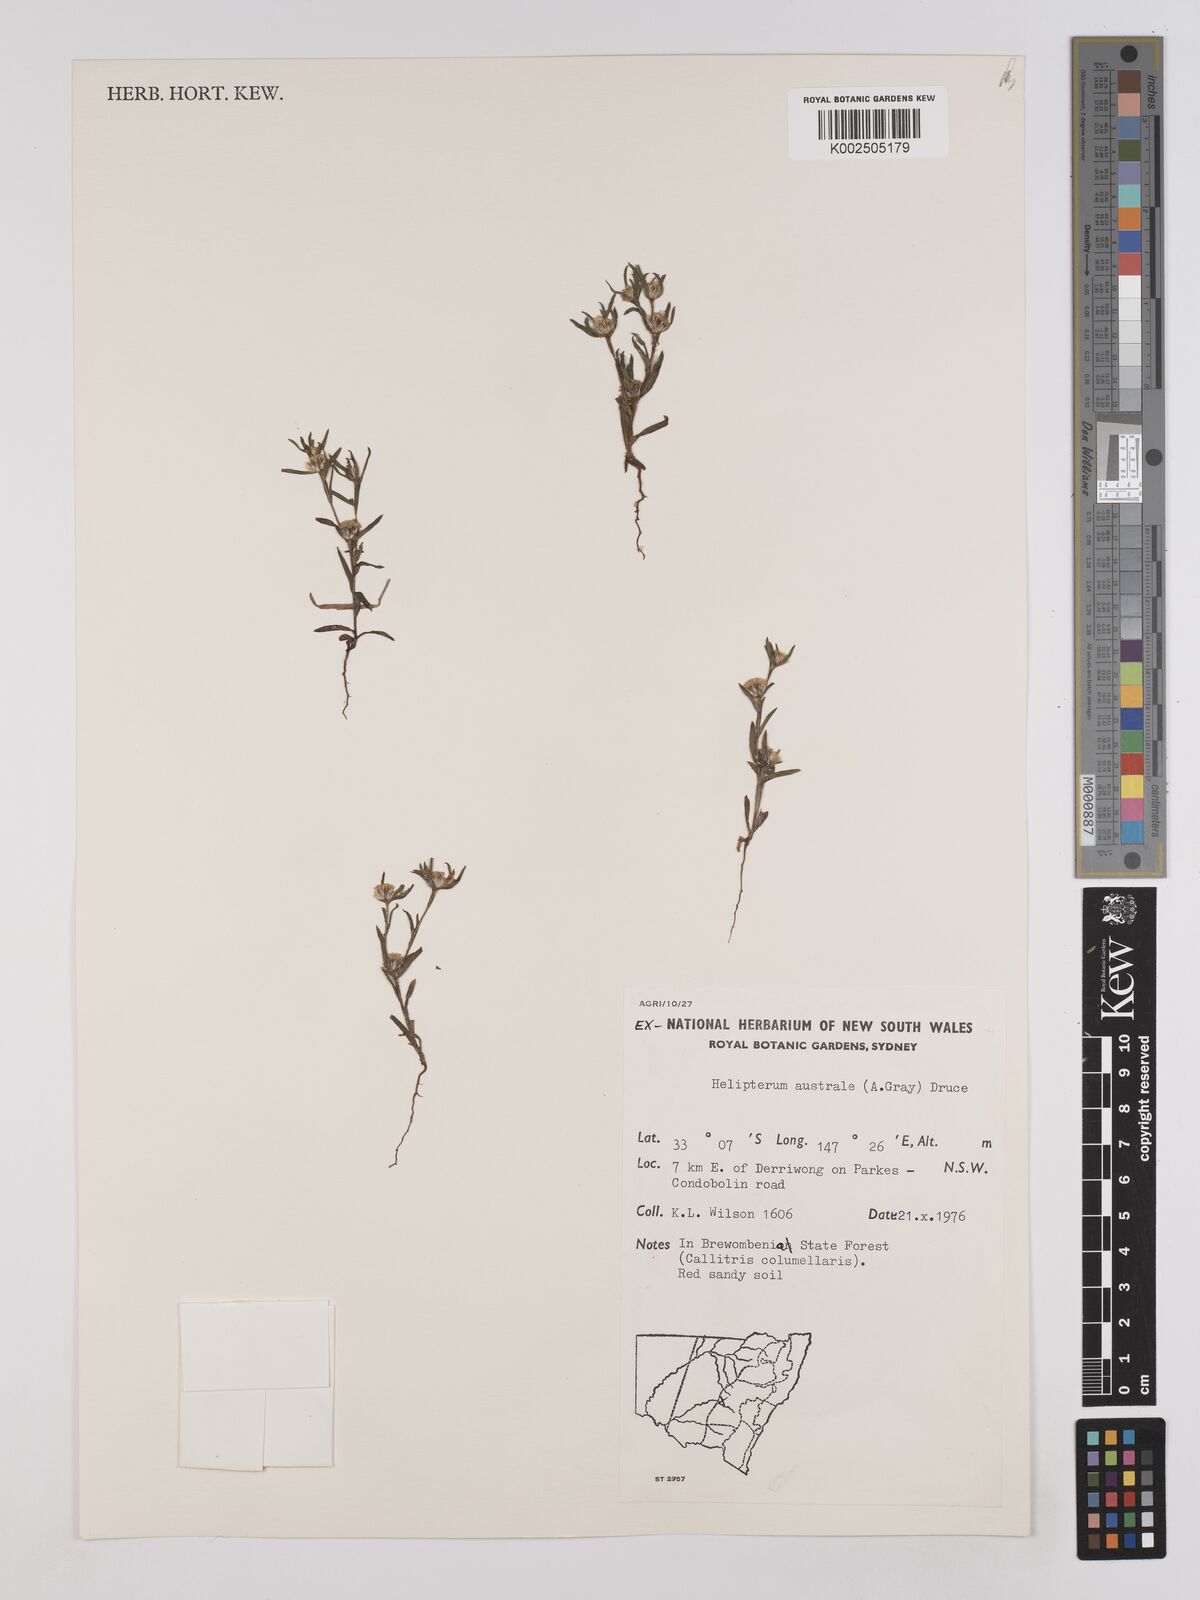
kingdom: Plantae
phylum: Tracheophyta
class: Magnoliopsida
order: Asterales
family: Asteraceae
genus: Triptilodiscus
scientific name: Triptilodiscus pygmaeus
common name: Common sunray
